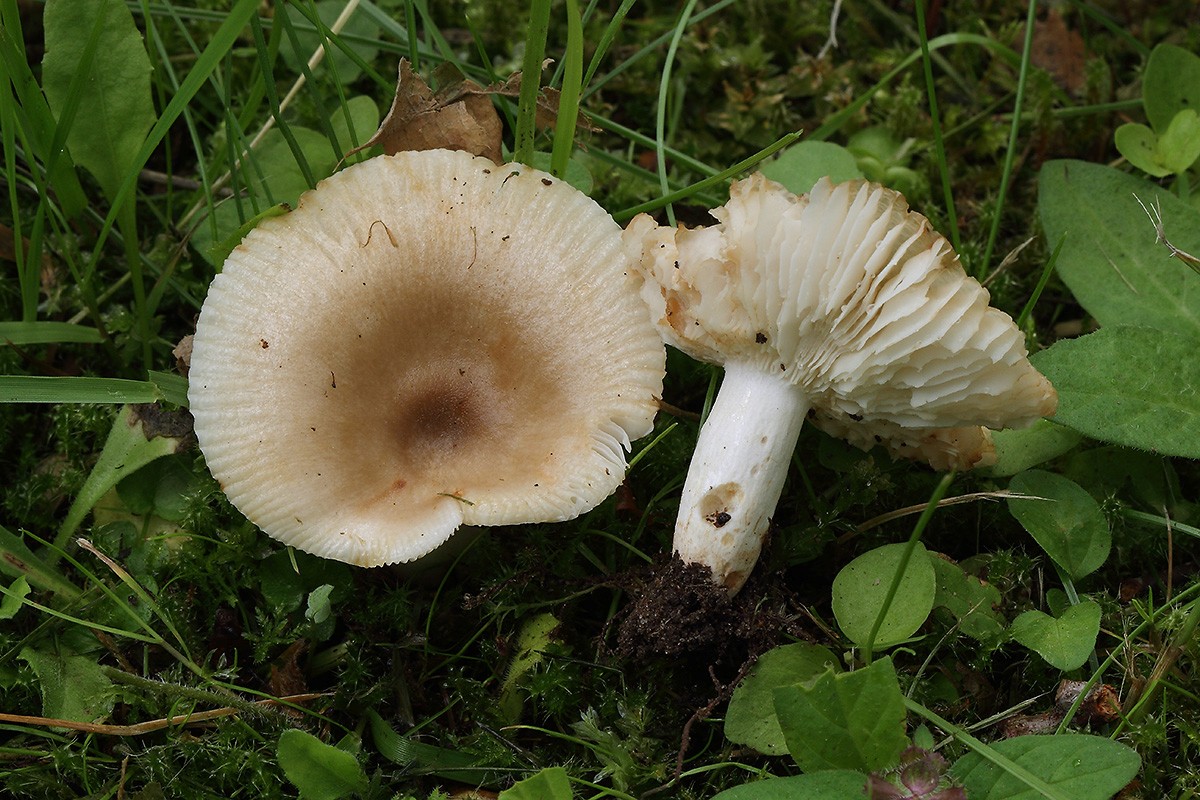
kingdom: Fungi
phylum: Basidiomycota
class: Agaricomycetes
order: Russulales
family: Russulaceae
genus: Russula
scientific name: Russula recondita
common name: mild kam-skørhat
